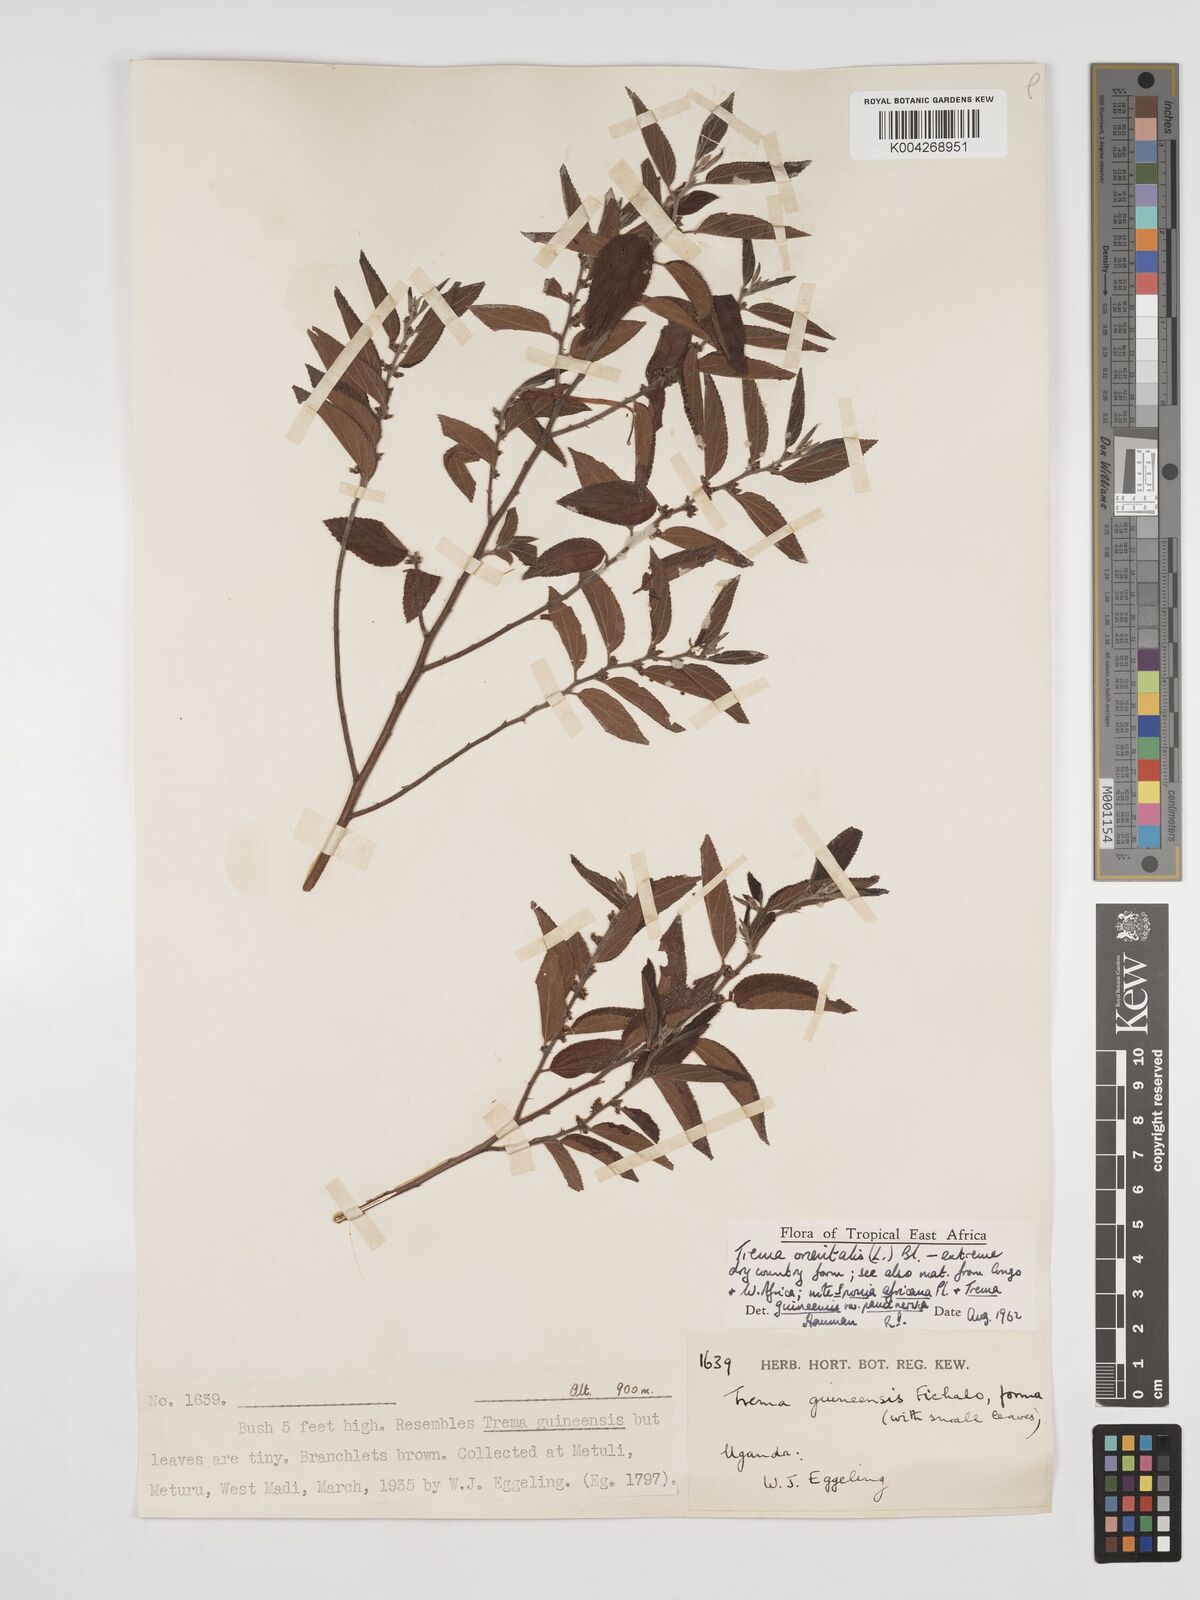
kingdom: Plantae
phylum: Tracheophyta
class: Magnoliopsida
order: Rosales
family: Cannabaceae
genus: Trema
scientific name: Trema orientale
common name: Indian charcoal tree
